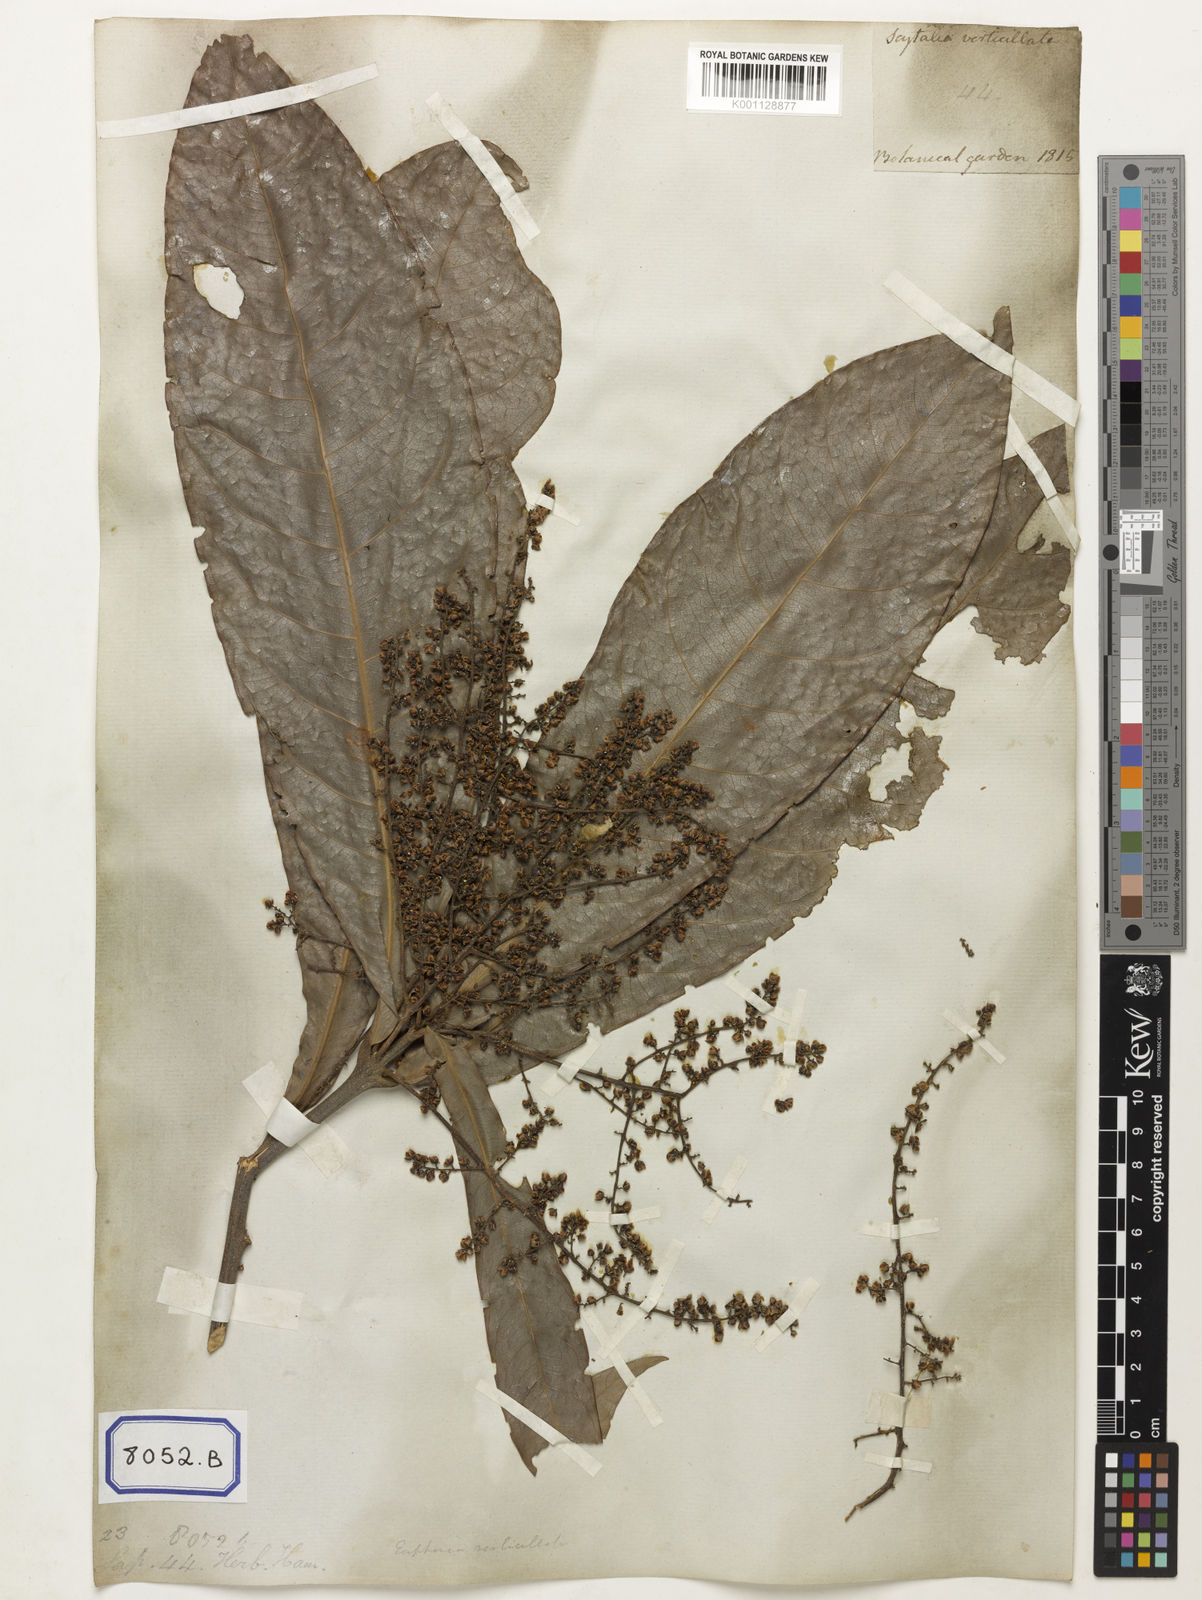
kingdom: Plantae
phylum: Tracheophyta
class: Magnoliopsida
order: Sapindales
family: Sapindaceae
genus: Lepisanthes
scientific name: Lepisanthes senegalensis
